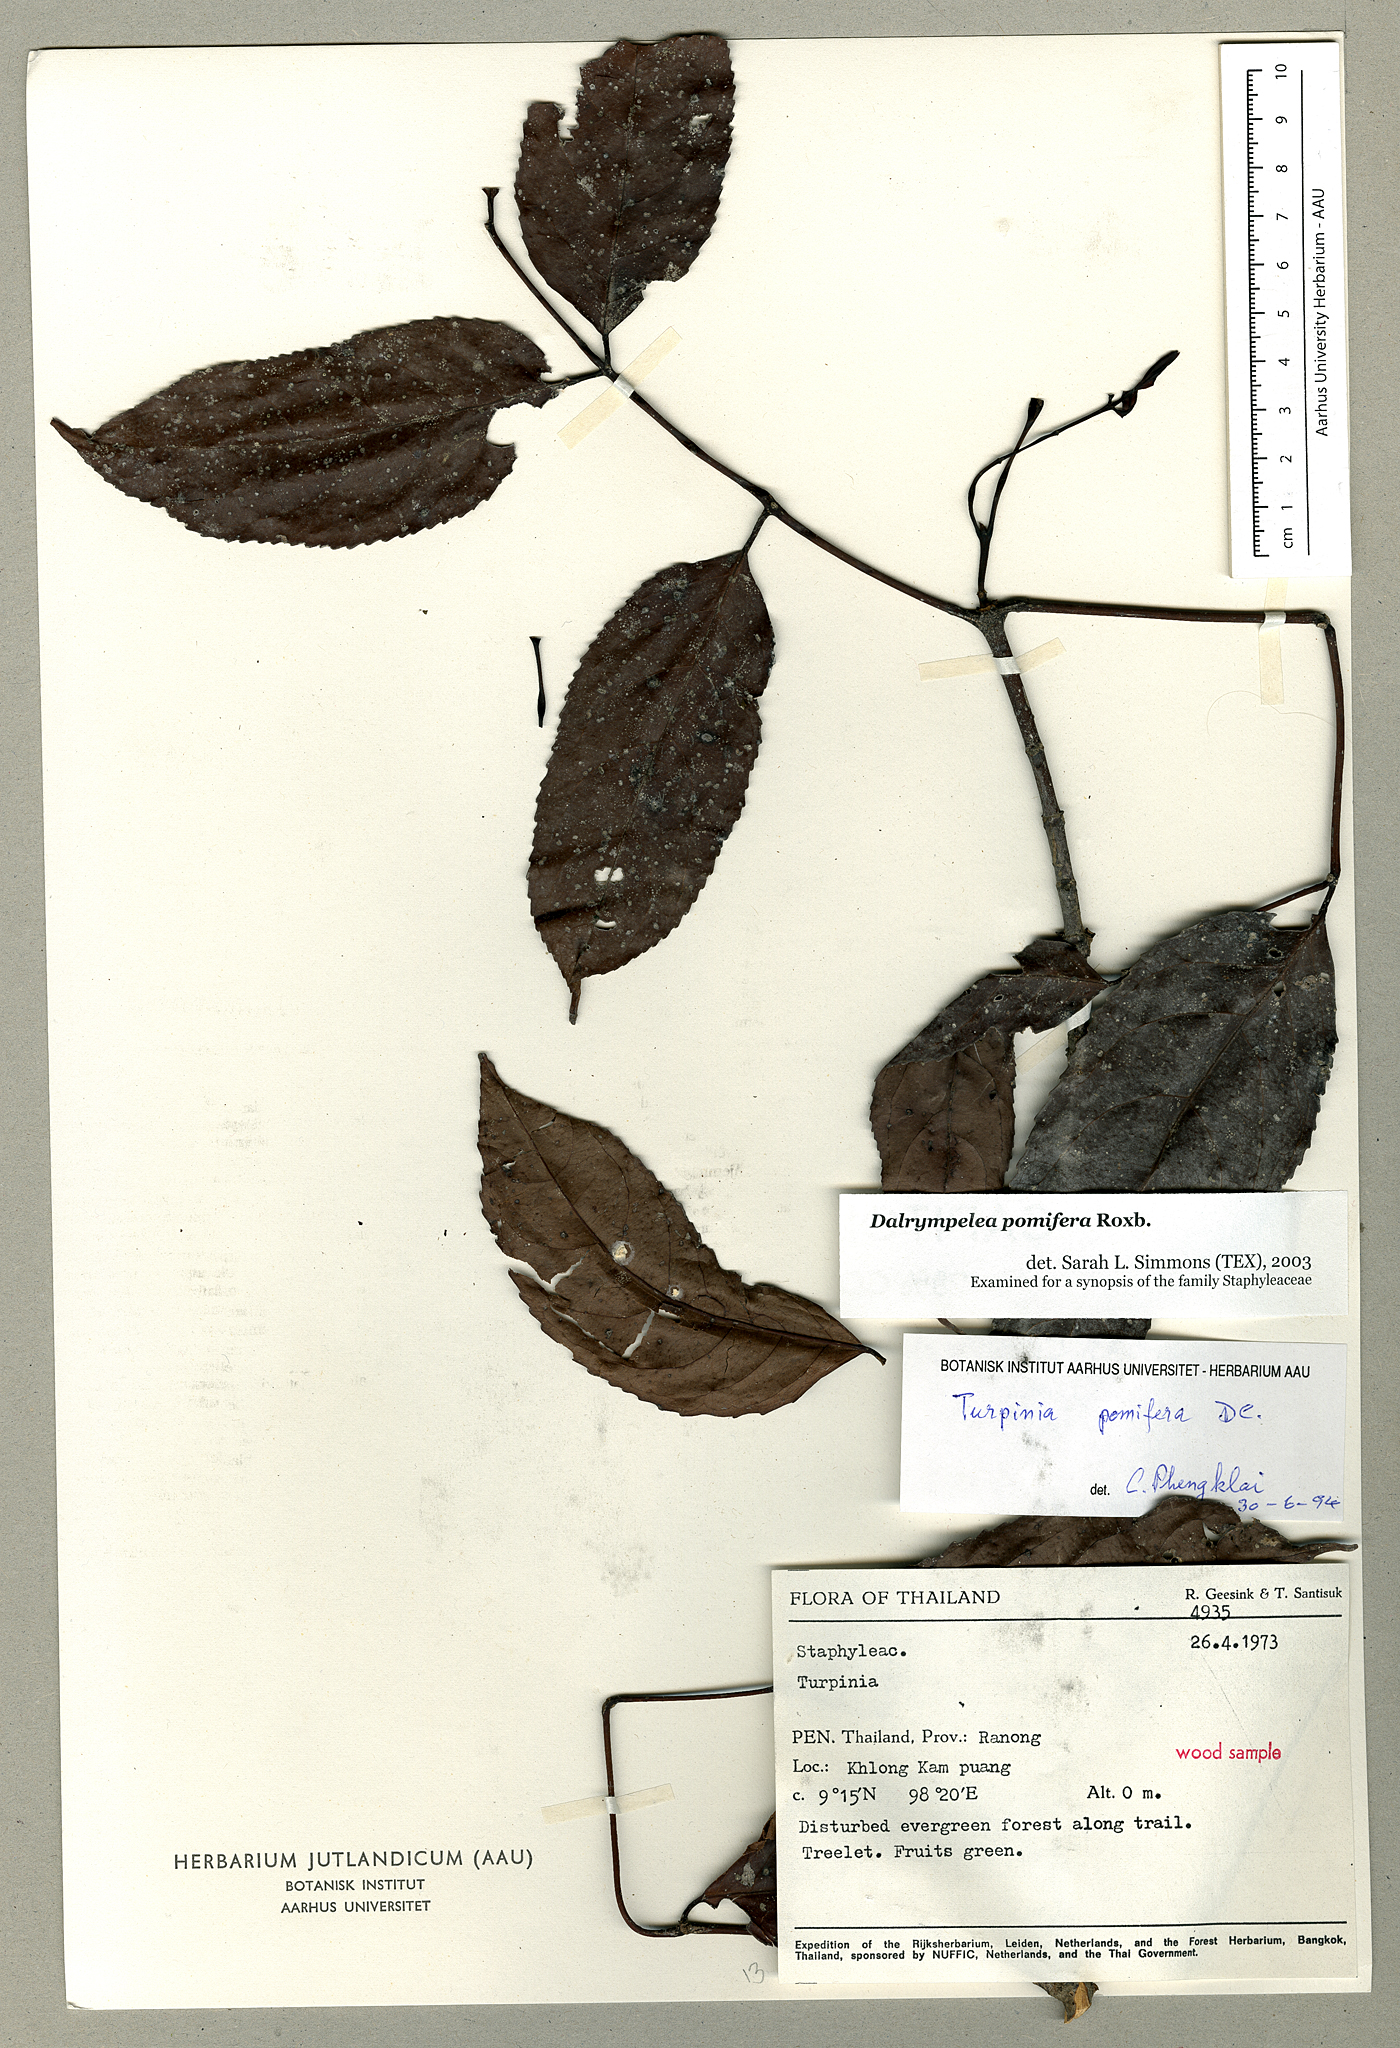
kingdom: Plantae
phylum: Tracheophyta
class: Magnoliopsida
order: Crossosomatales
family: Staphyleaceae
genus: Dalrympelea
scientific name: Dalrympelea sphaerocarpa
